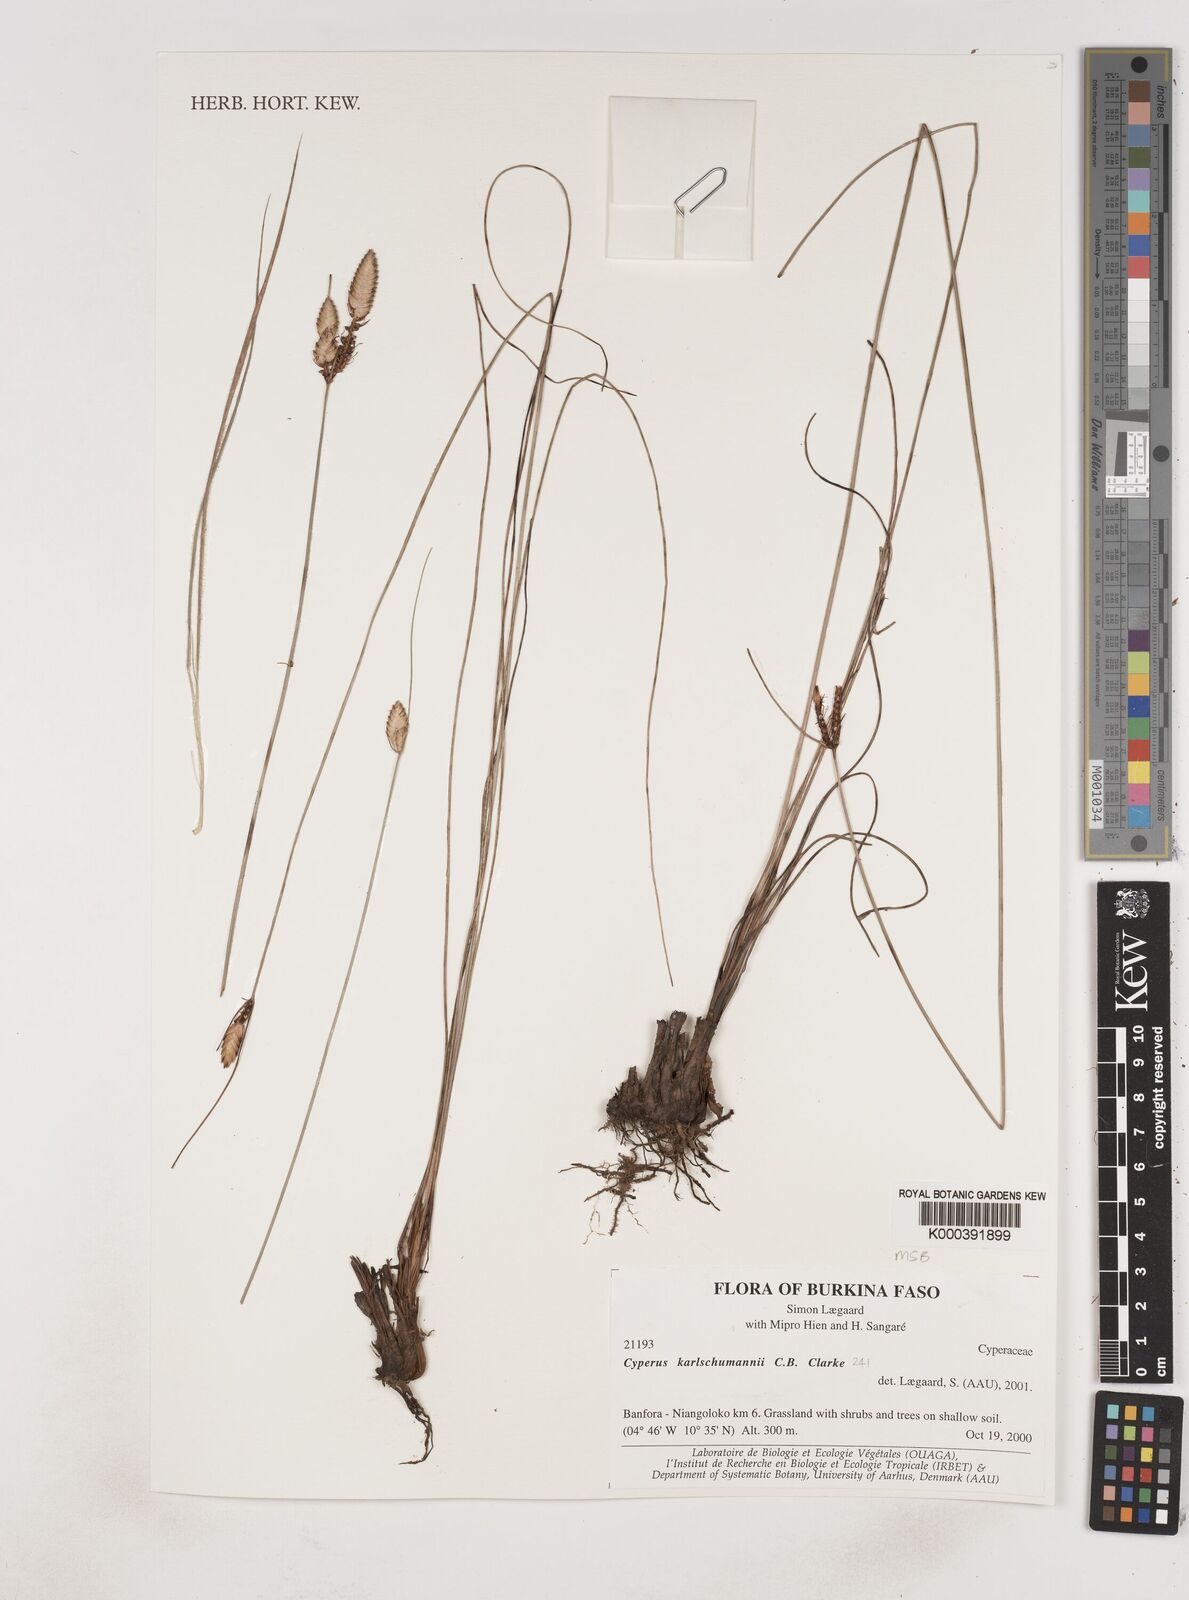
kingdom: Plantae
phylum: Tracheophyta
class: Liliopsida
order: Poales
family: Cyperaceae
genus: Cyperus
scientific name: Cyperus karlschumannii
